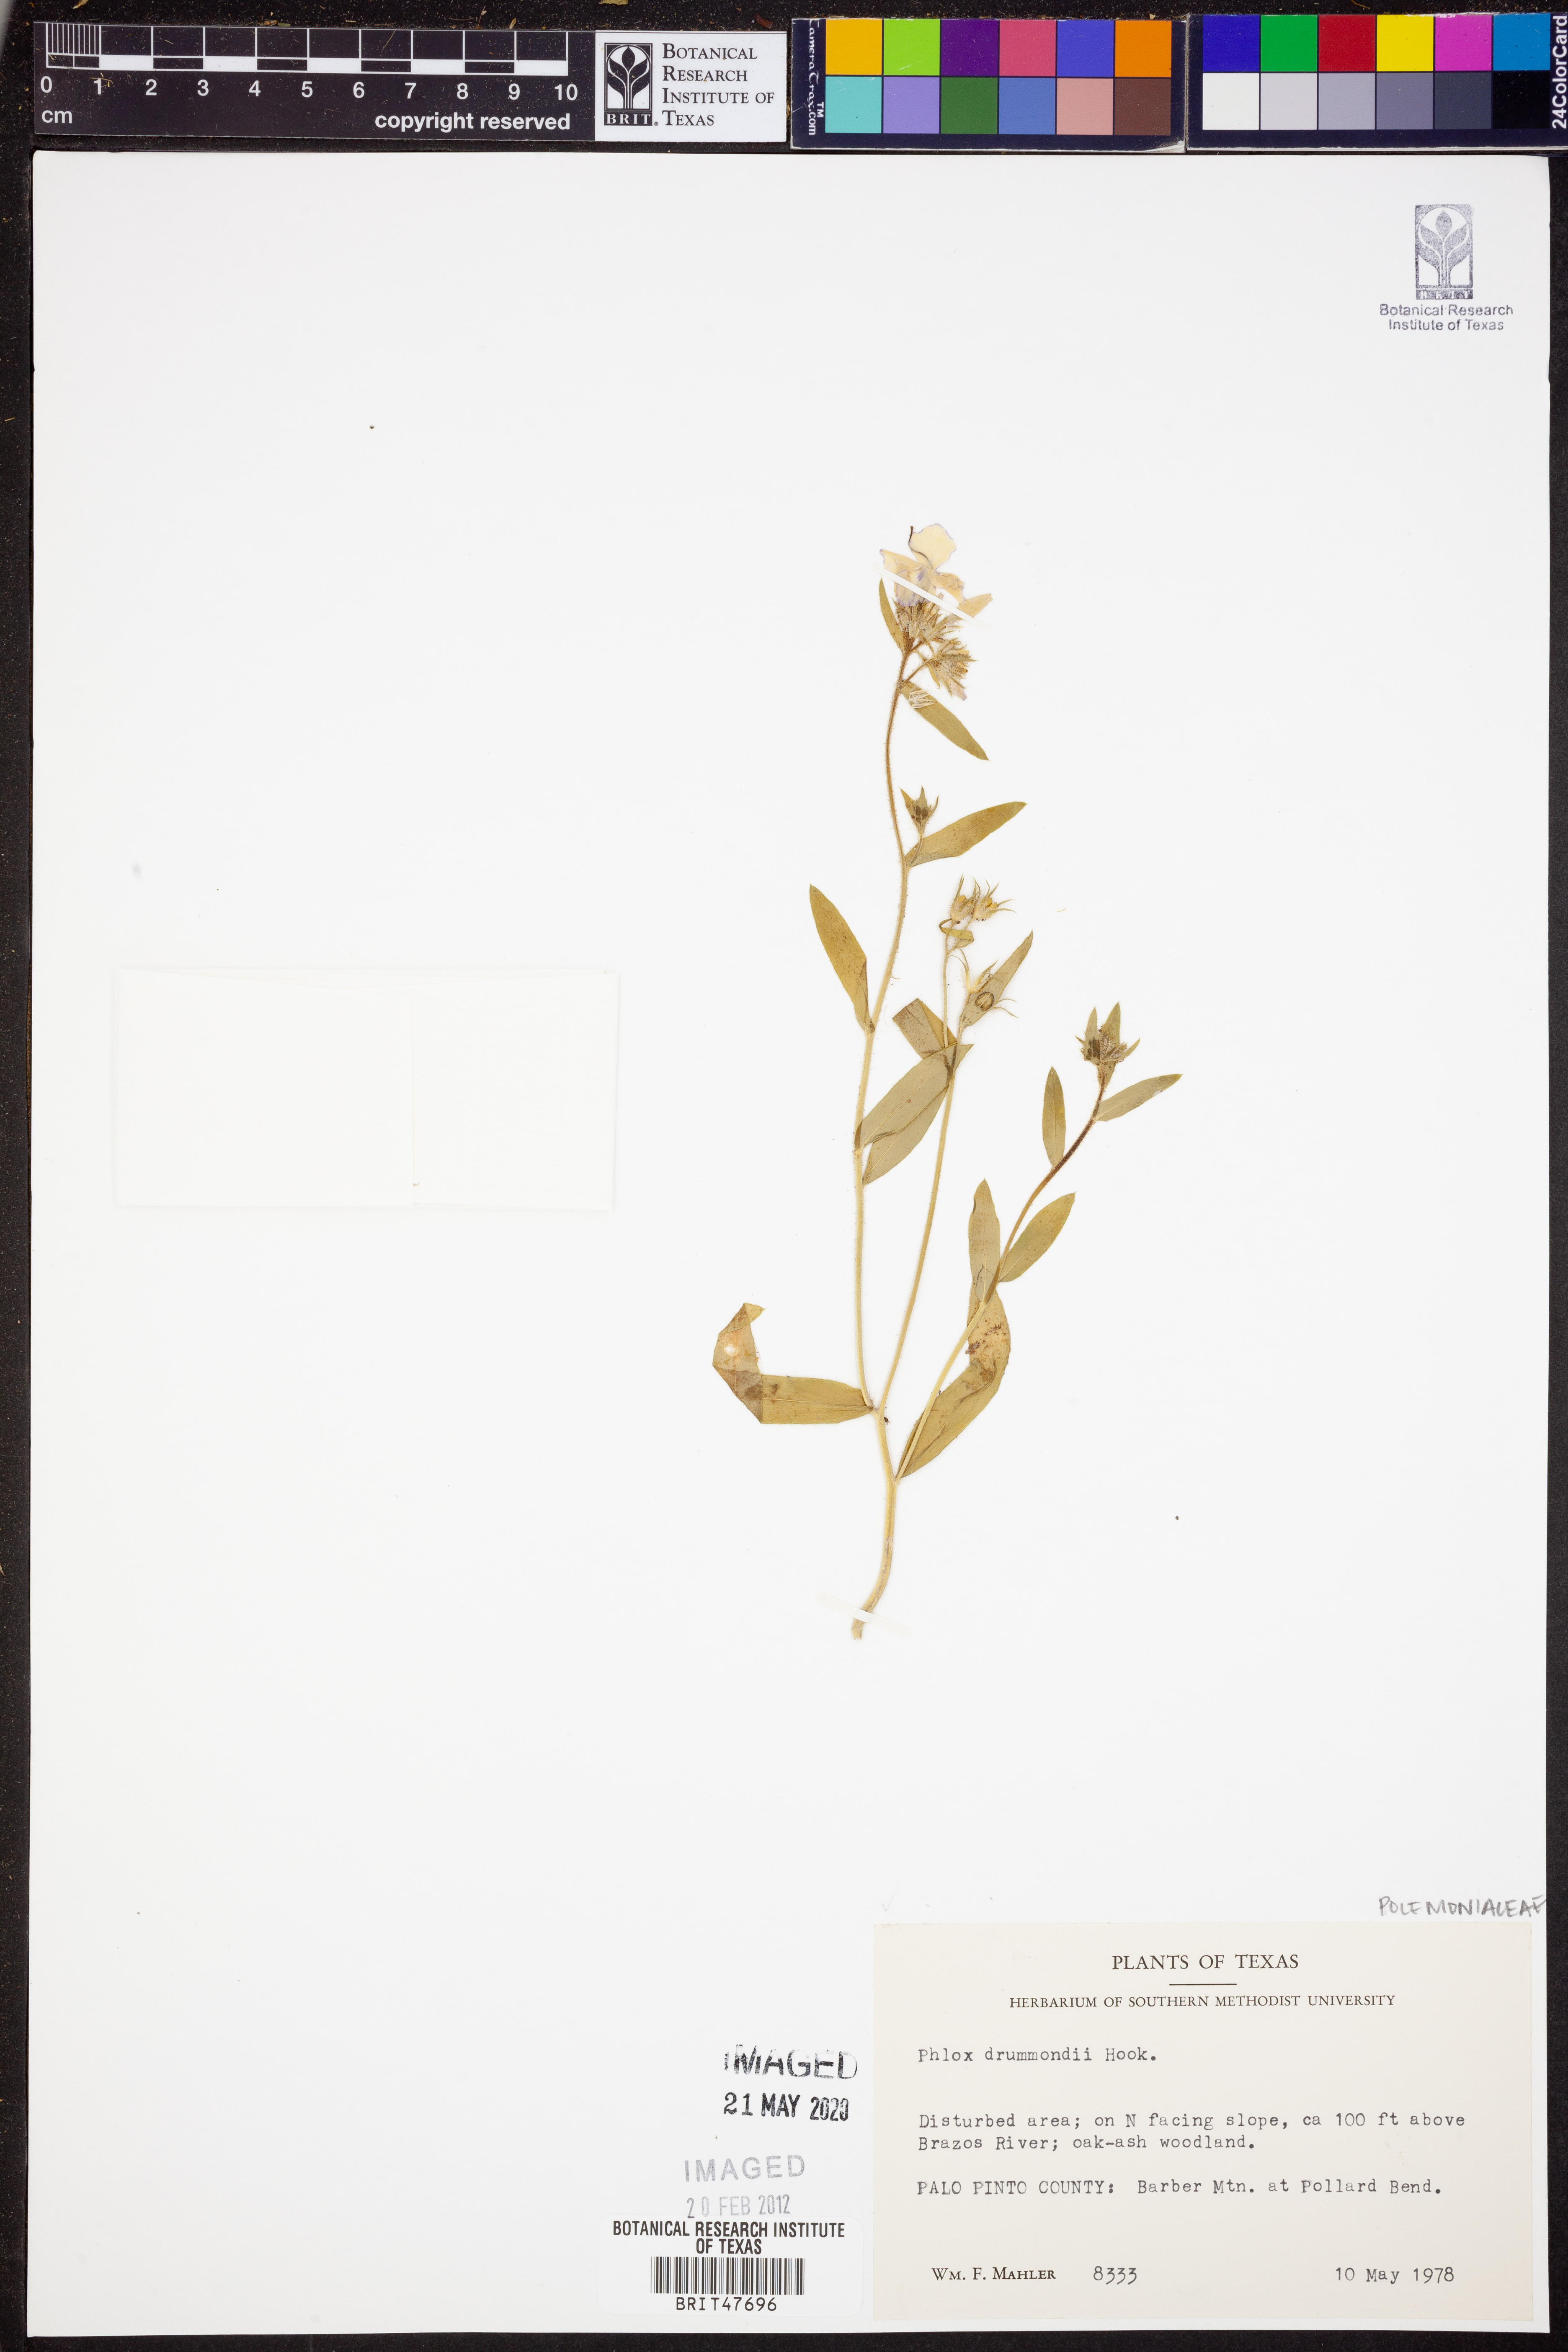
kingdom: Plantae
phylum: Tracheophyta
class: Magnoliopsida
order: Ericales
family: Polemoniaceae
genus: Phlox
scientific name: Phlox drummondii
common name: Drummond's phlox
